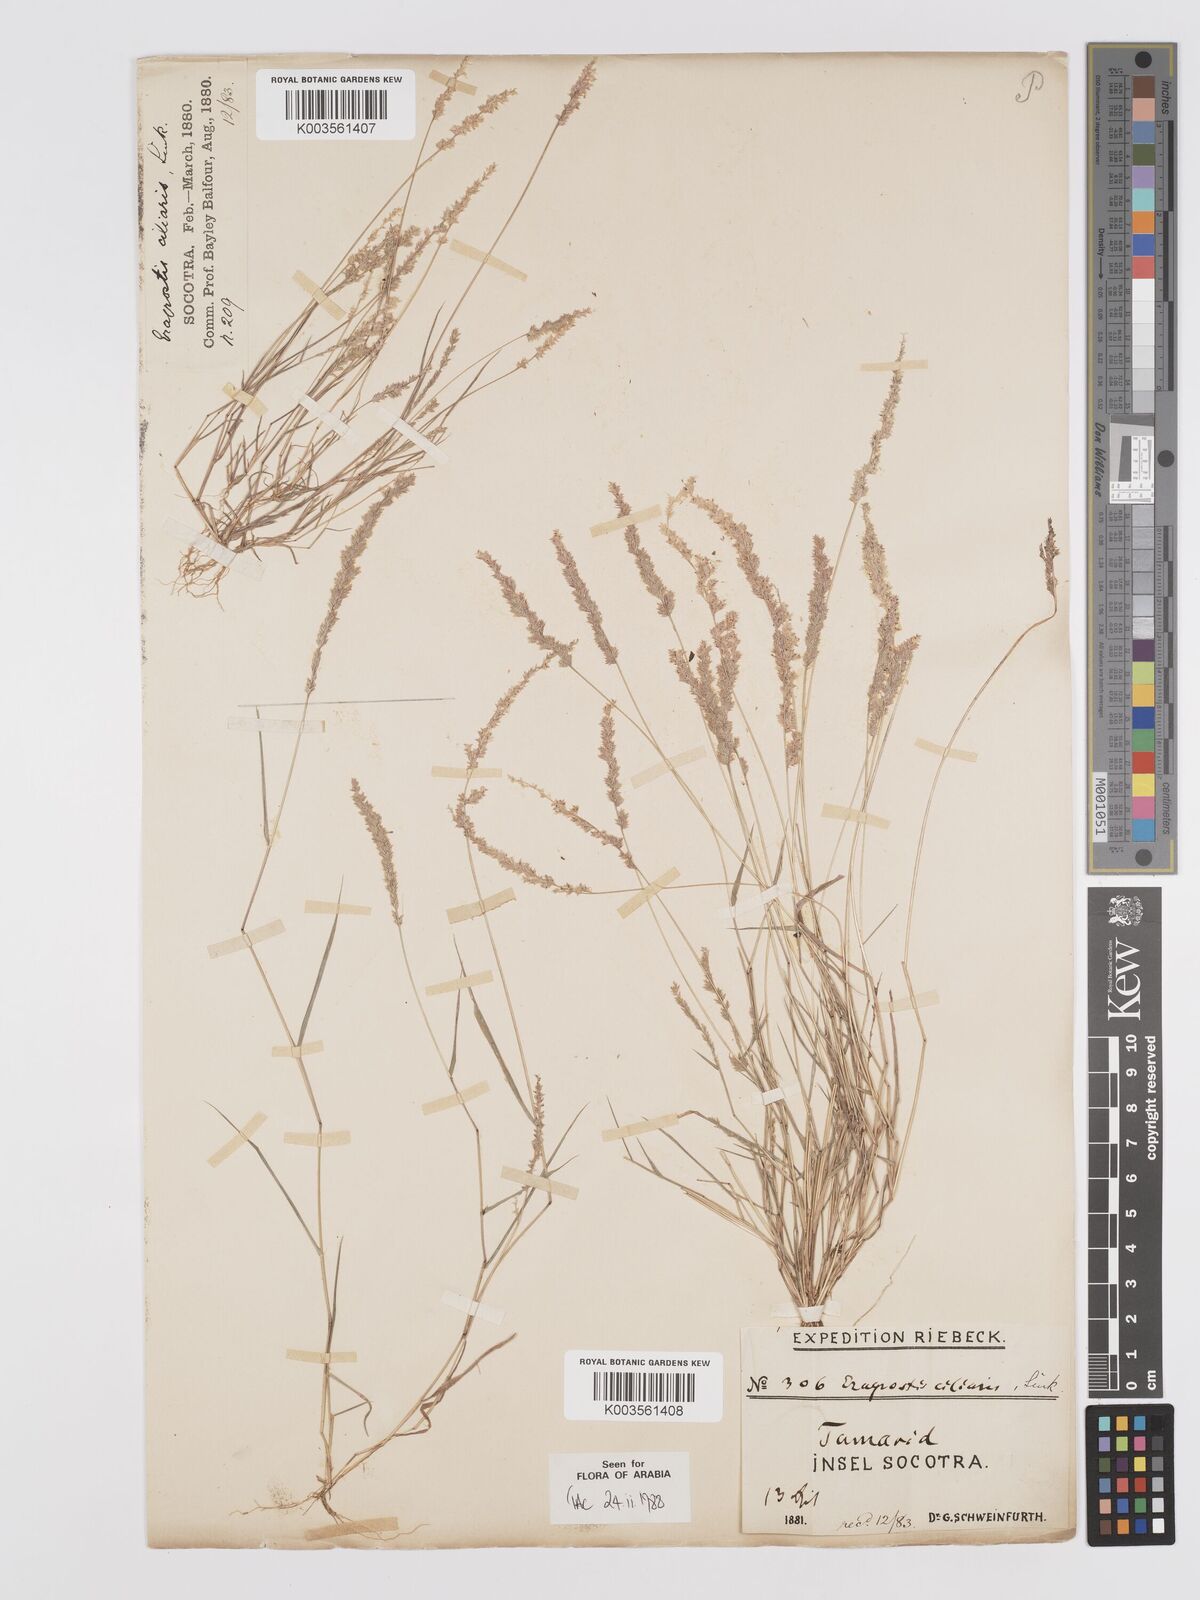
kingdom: Plantae
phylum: Tracheophyta
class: Liliopsida
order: Poales
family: Poaceae
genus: Eragrostis
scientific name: Eragrostis ciliaris
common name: Gophertail lovegrass
